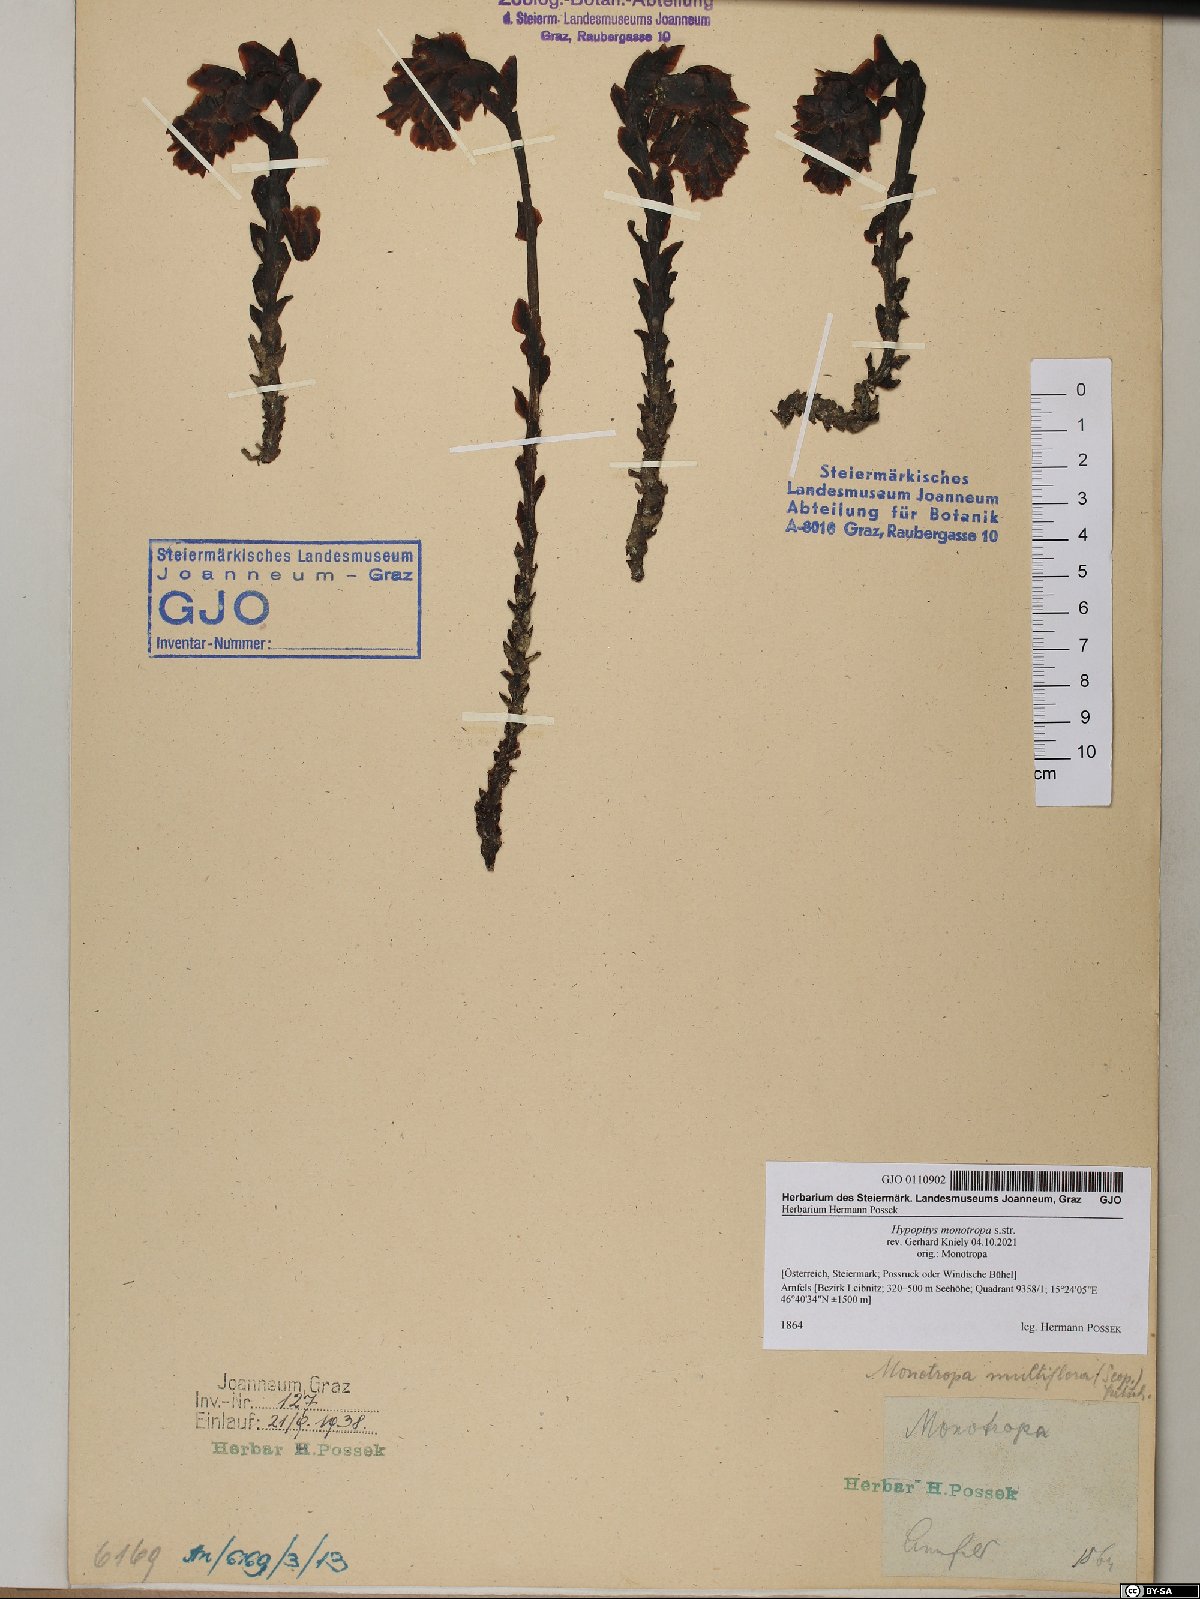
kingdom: Plantae
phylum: Tracheophyta
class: Magnoliopsida
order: Ericales
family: Ericaceae
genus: Hypopitys
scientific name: Hypopitys monotropa
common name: Yellow bird's-nest
